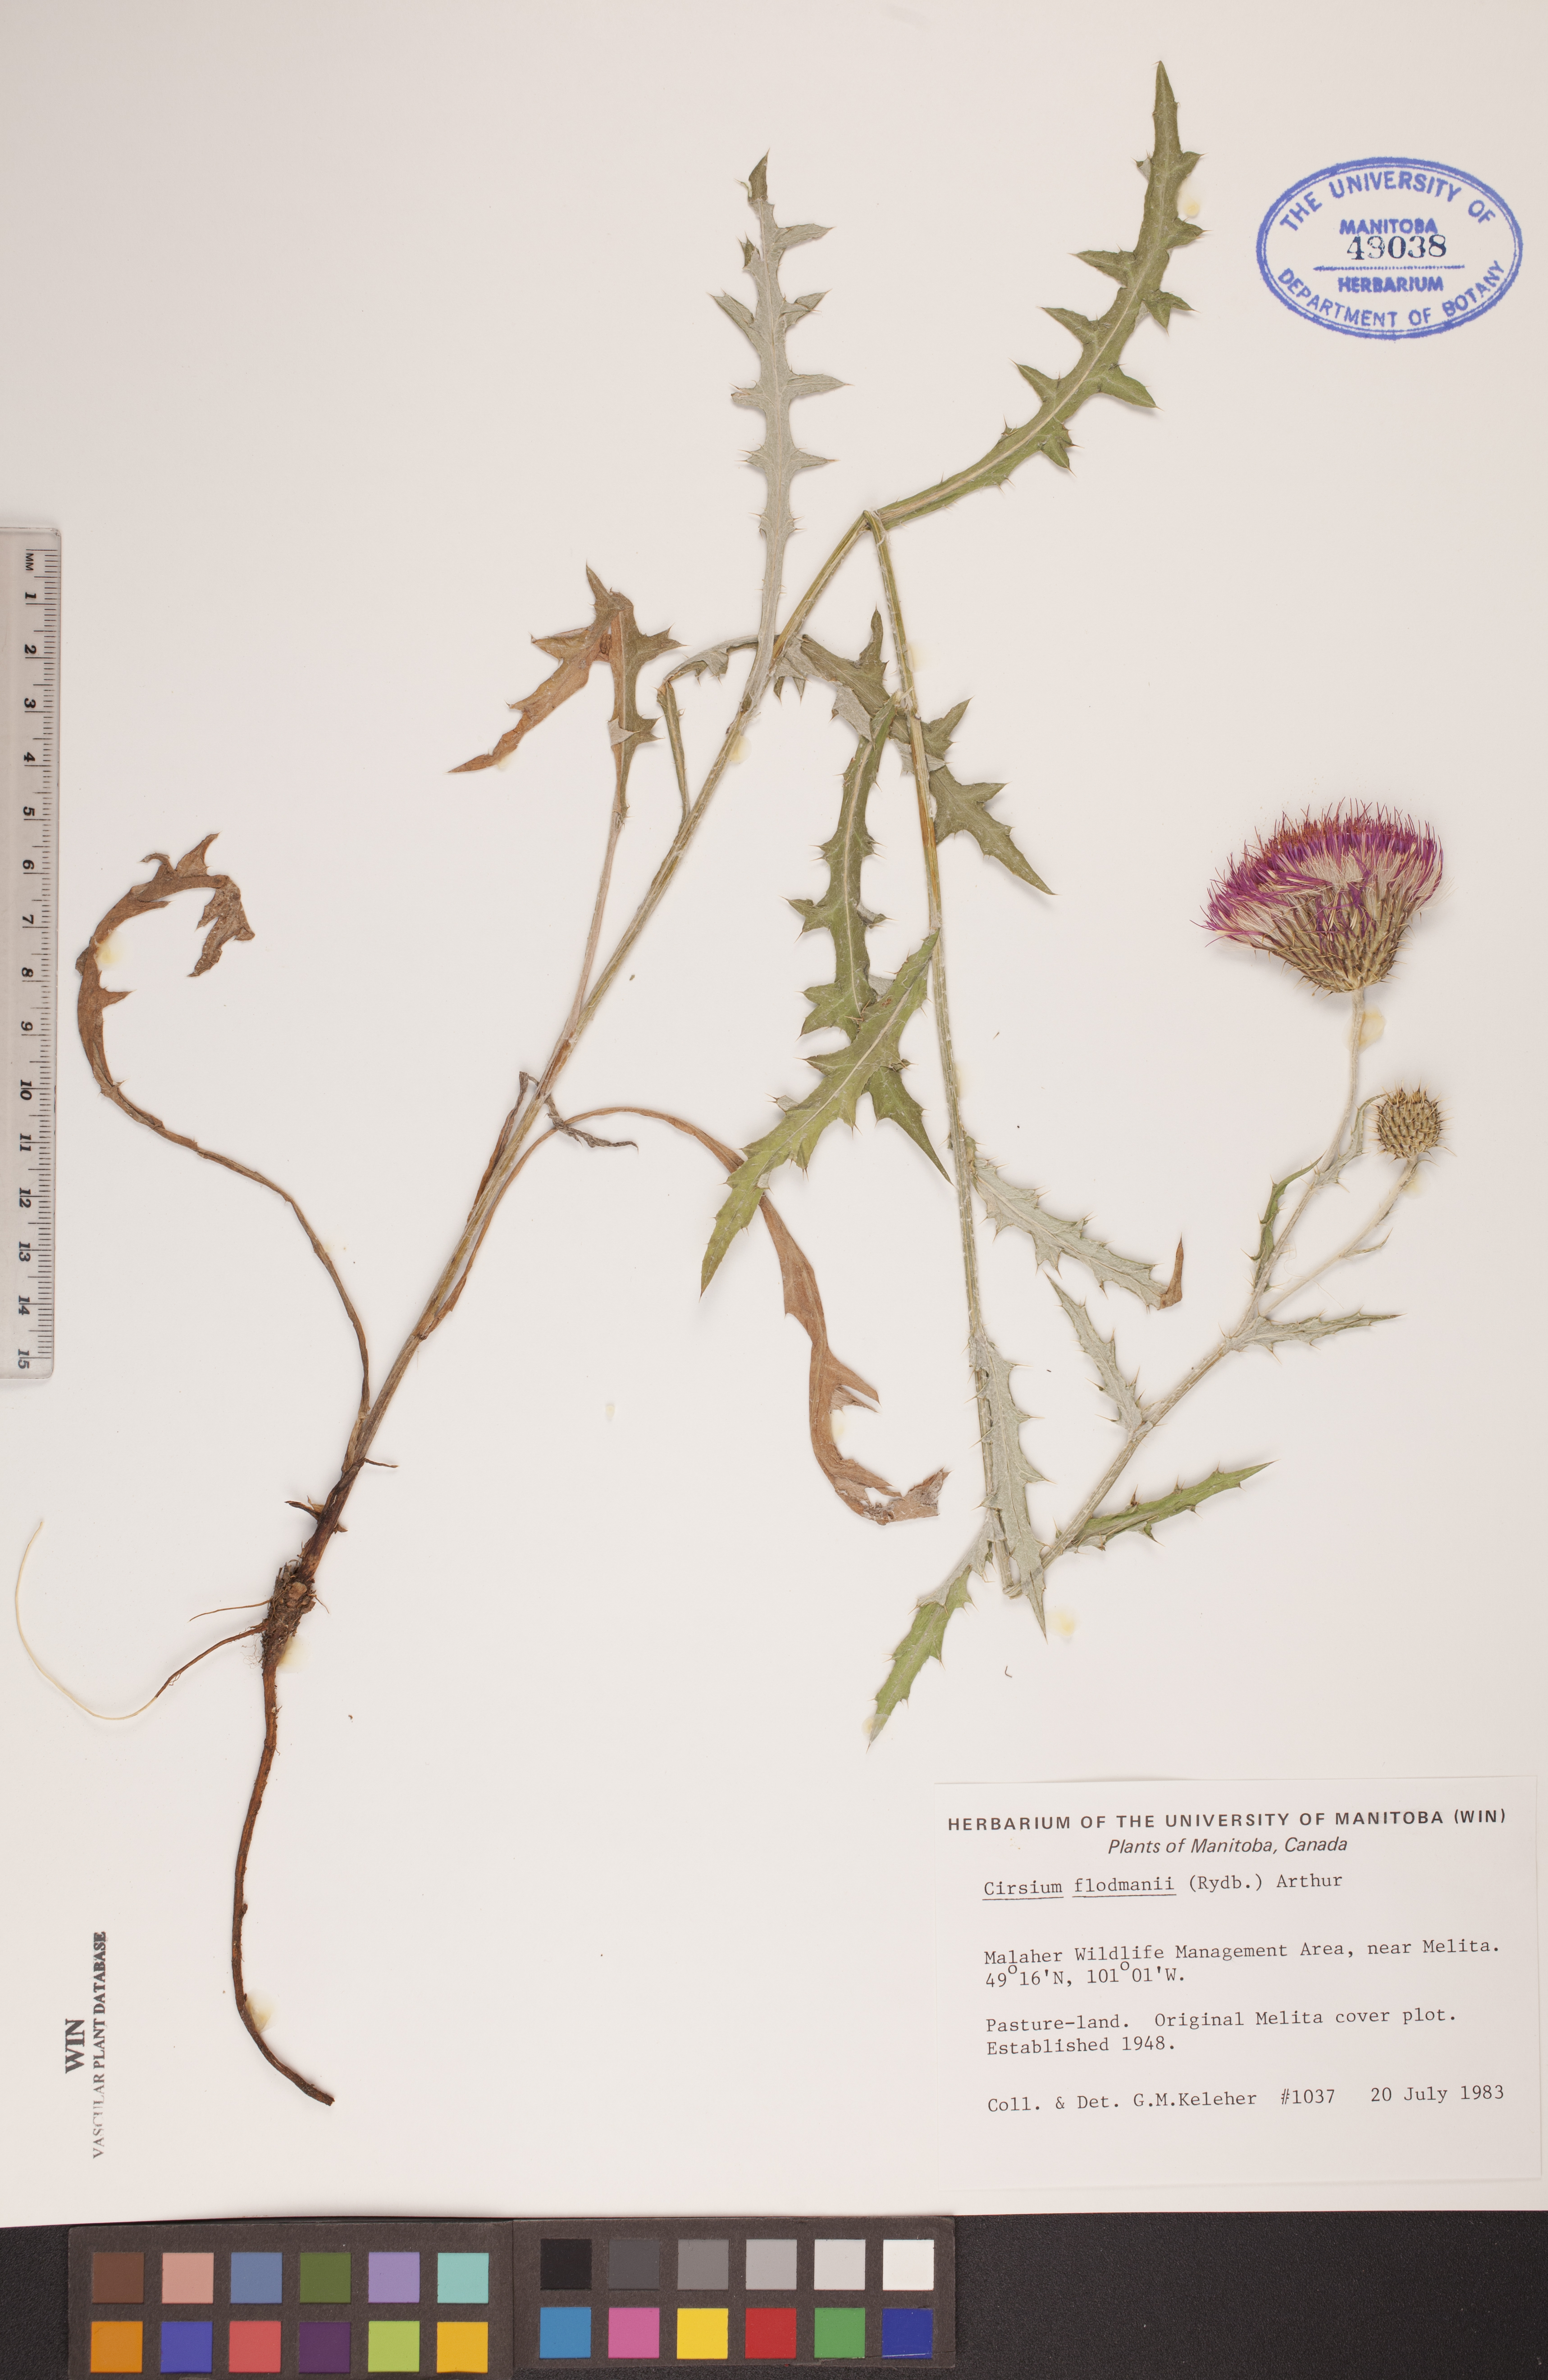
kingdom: Plantae
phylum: Tracheophyta
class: Magnoliopsida
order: Asterales
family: Asteraceae
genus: Cirsium
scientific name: Cirsium flodmanii
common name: Flodman's thistle
